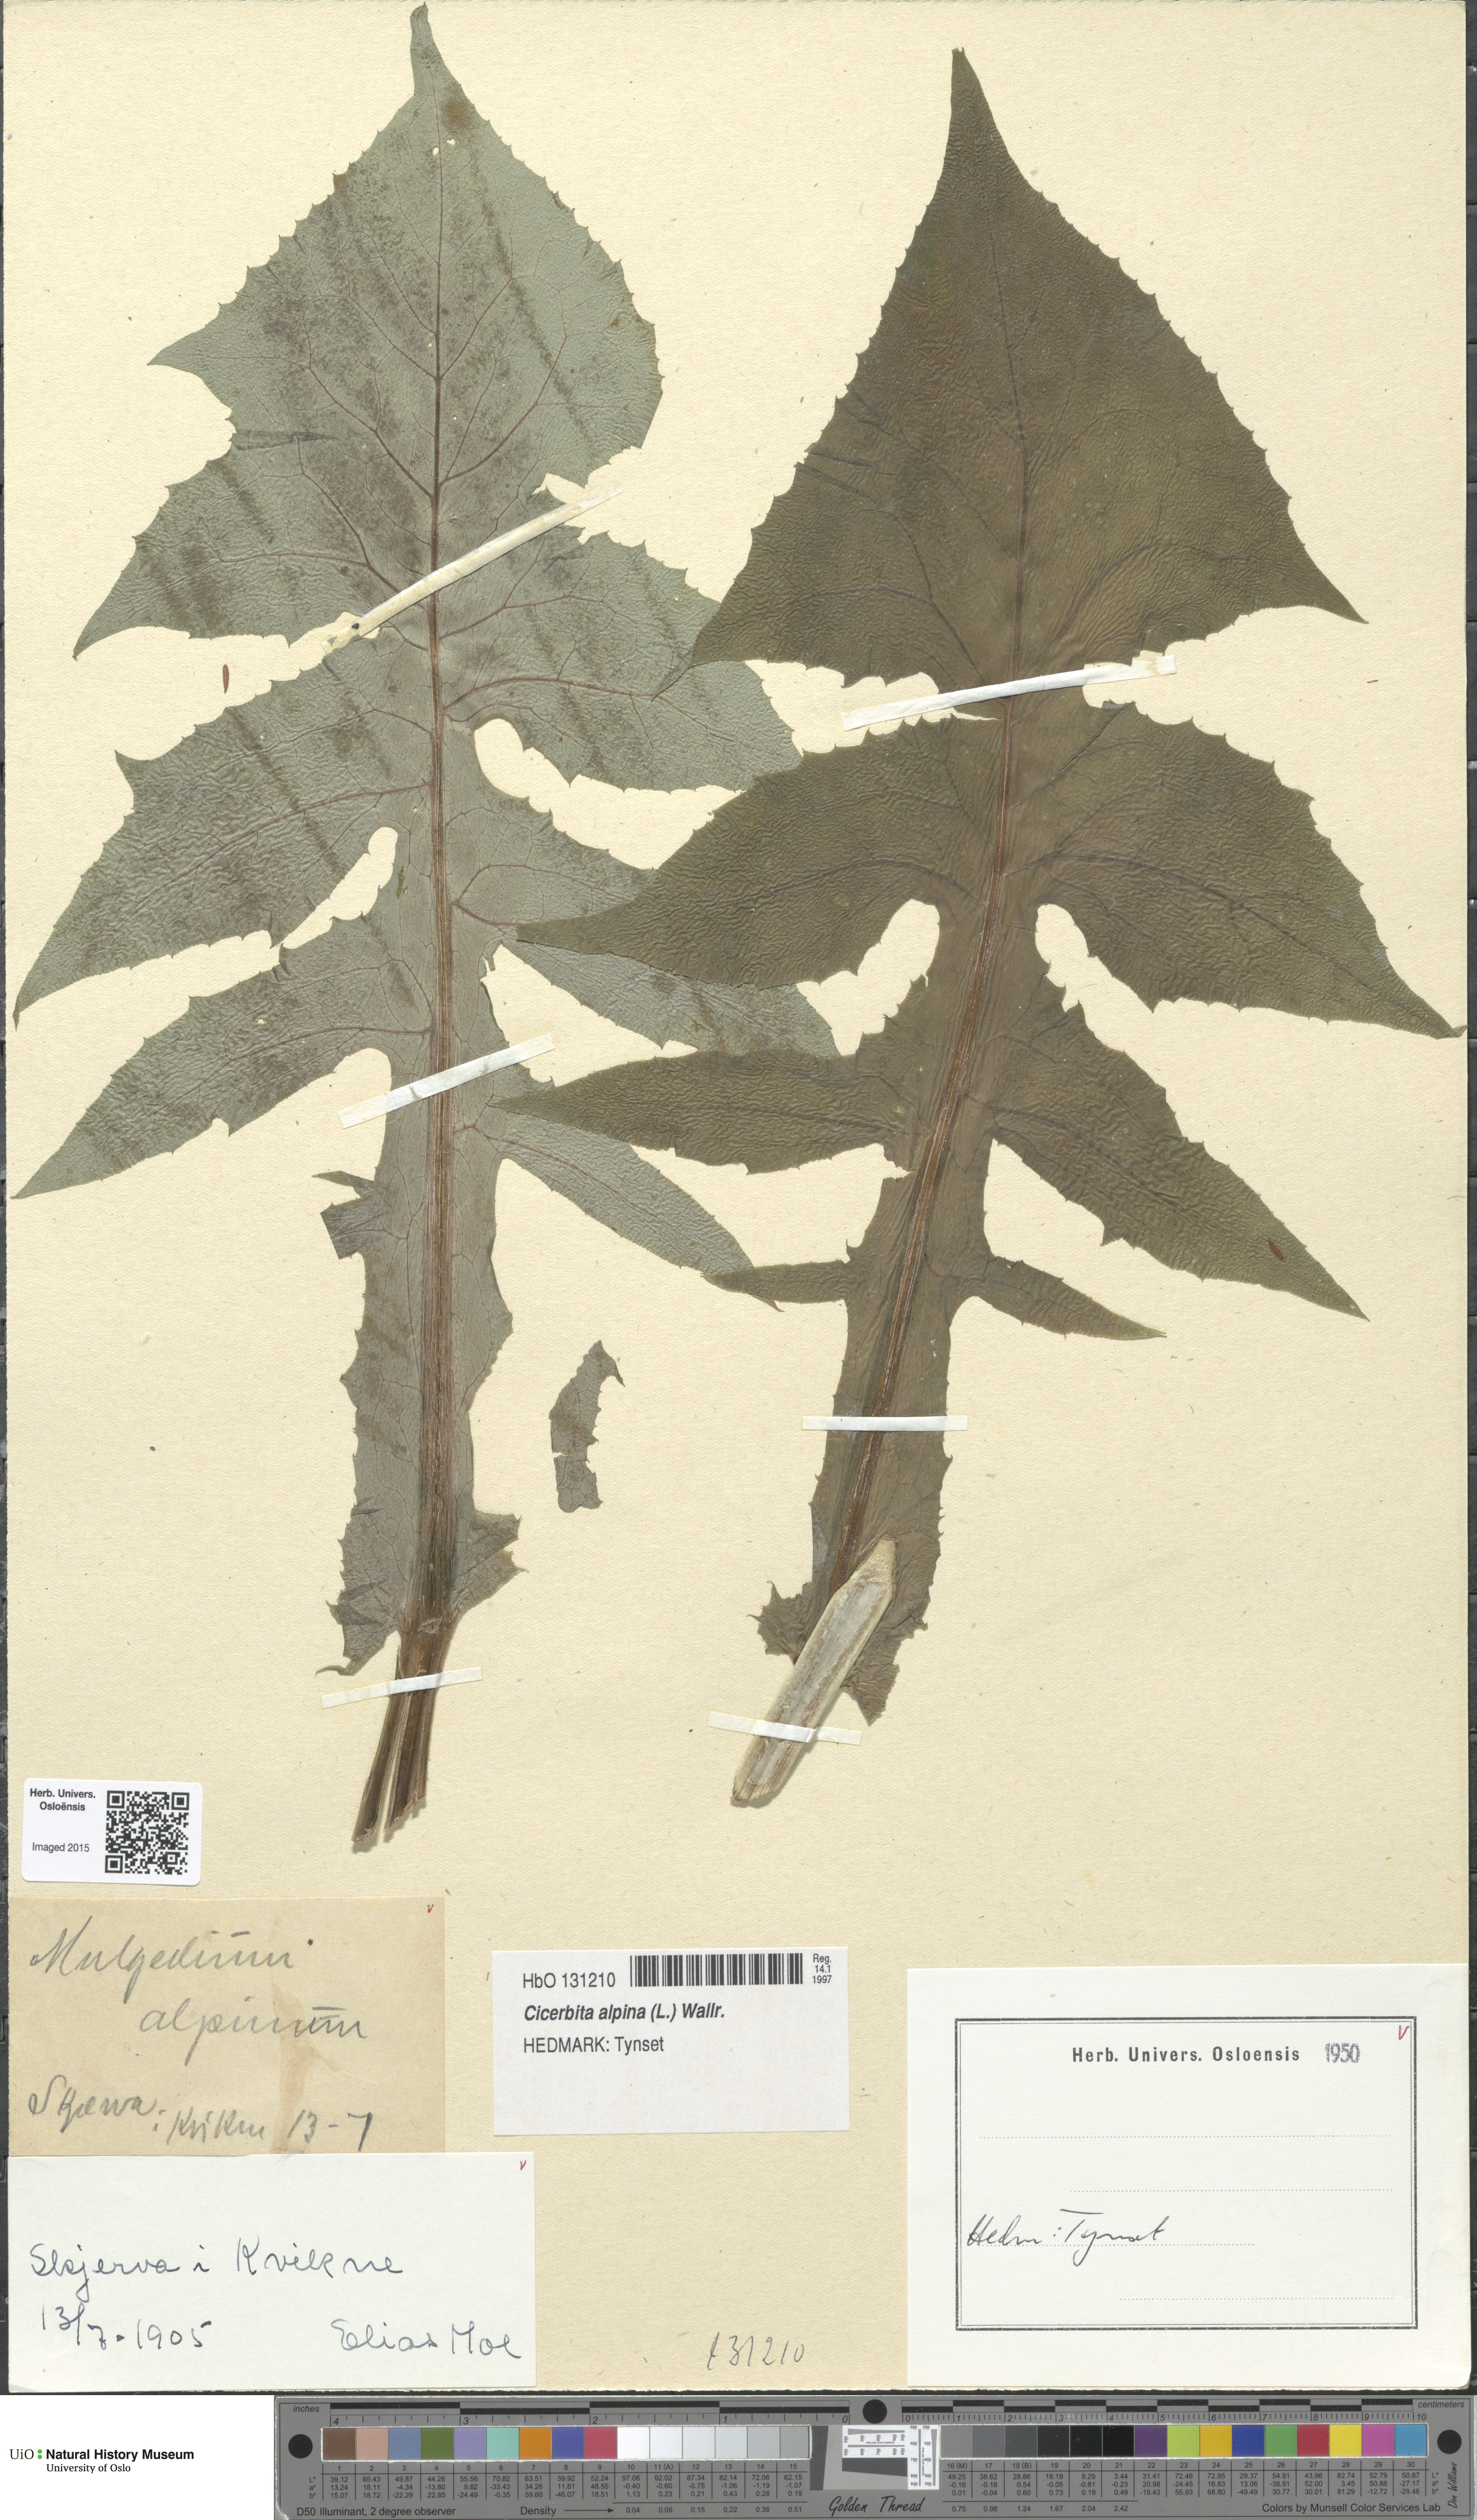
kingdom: Plantae
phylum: Tracheophyta
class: Magnoliopsida
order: Asterales
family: Asteraceae
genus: Cicerbita
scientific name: Cicerbita alpina
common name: Alpine blue-sow-thistle
